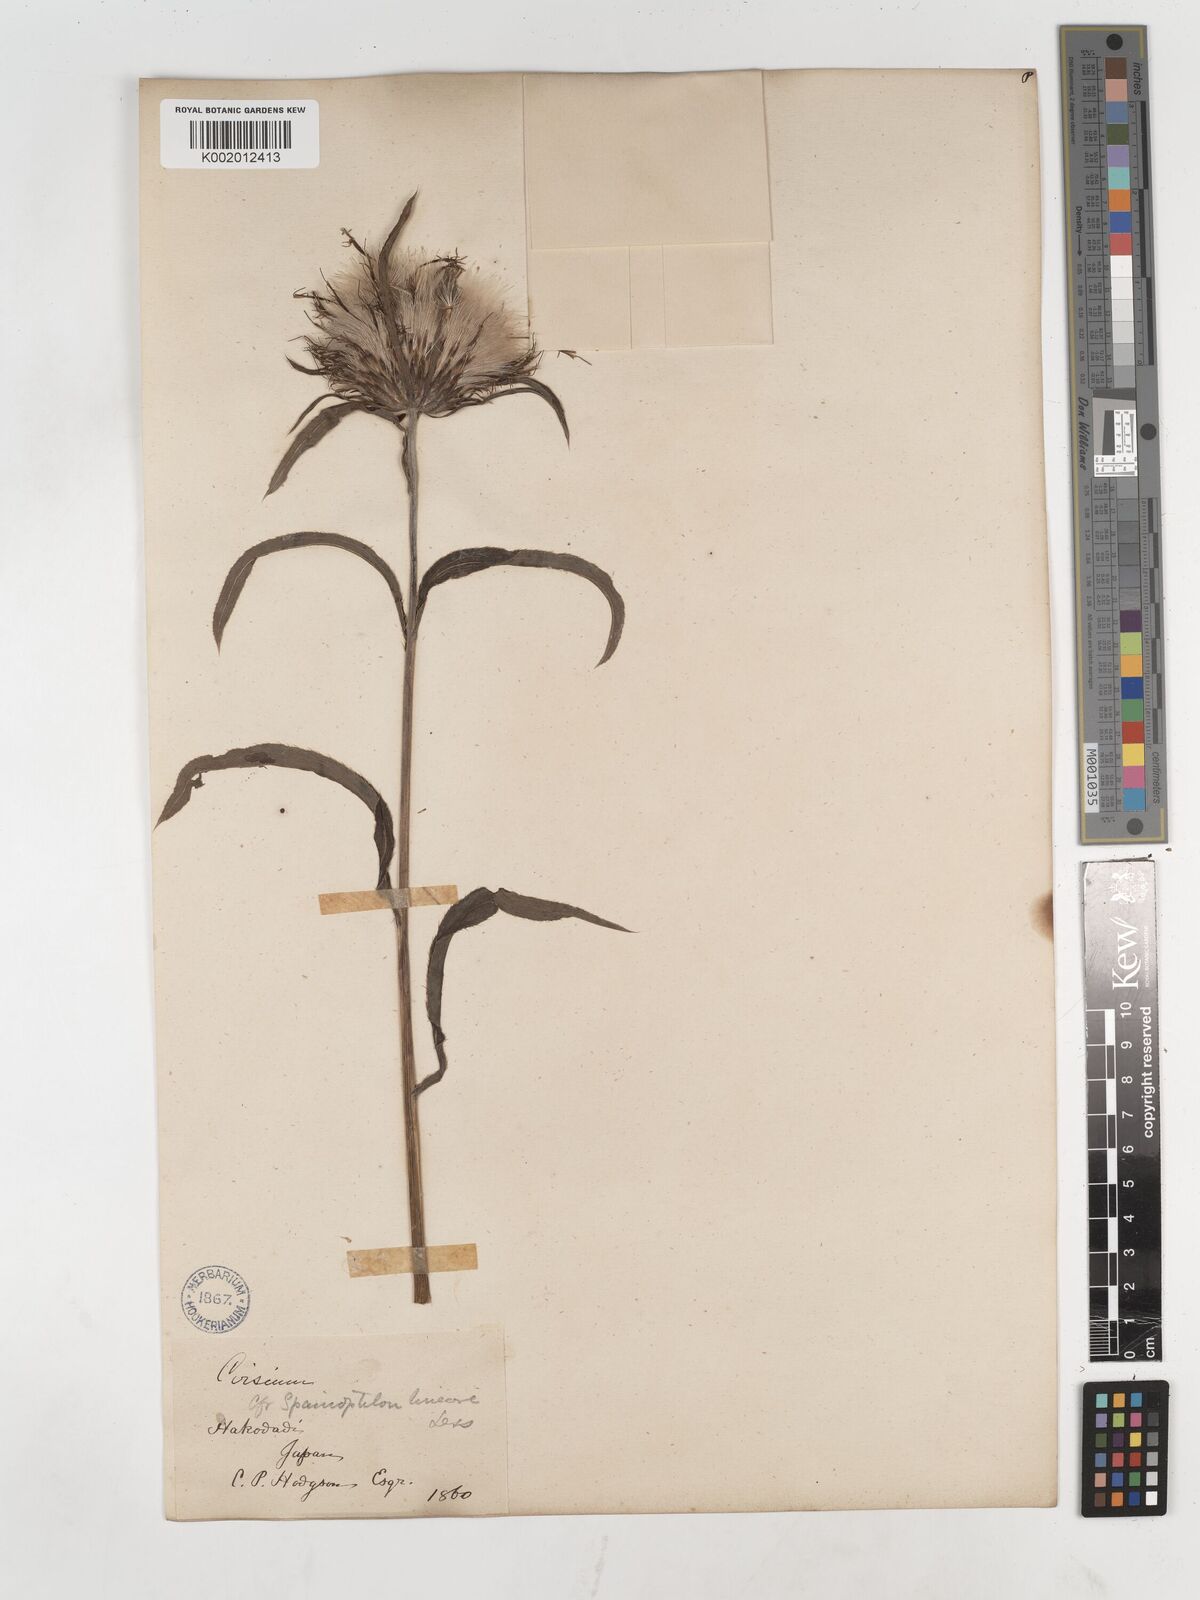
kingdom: Plantae
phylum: Tracheophyta
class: Magnoliopsida
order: Asterales
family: Asteraceae
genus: Cirsium
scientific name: Cirsium
